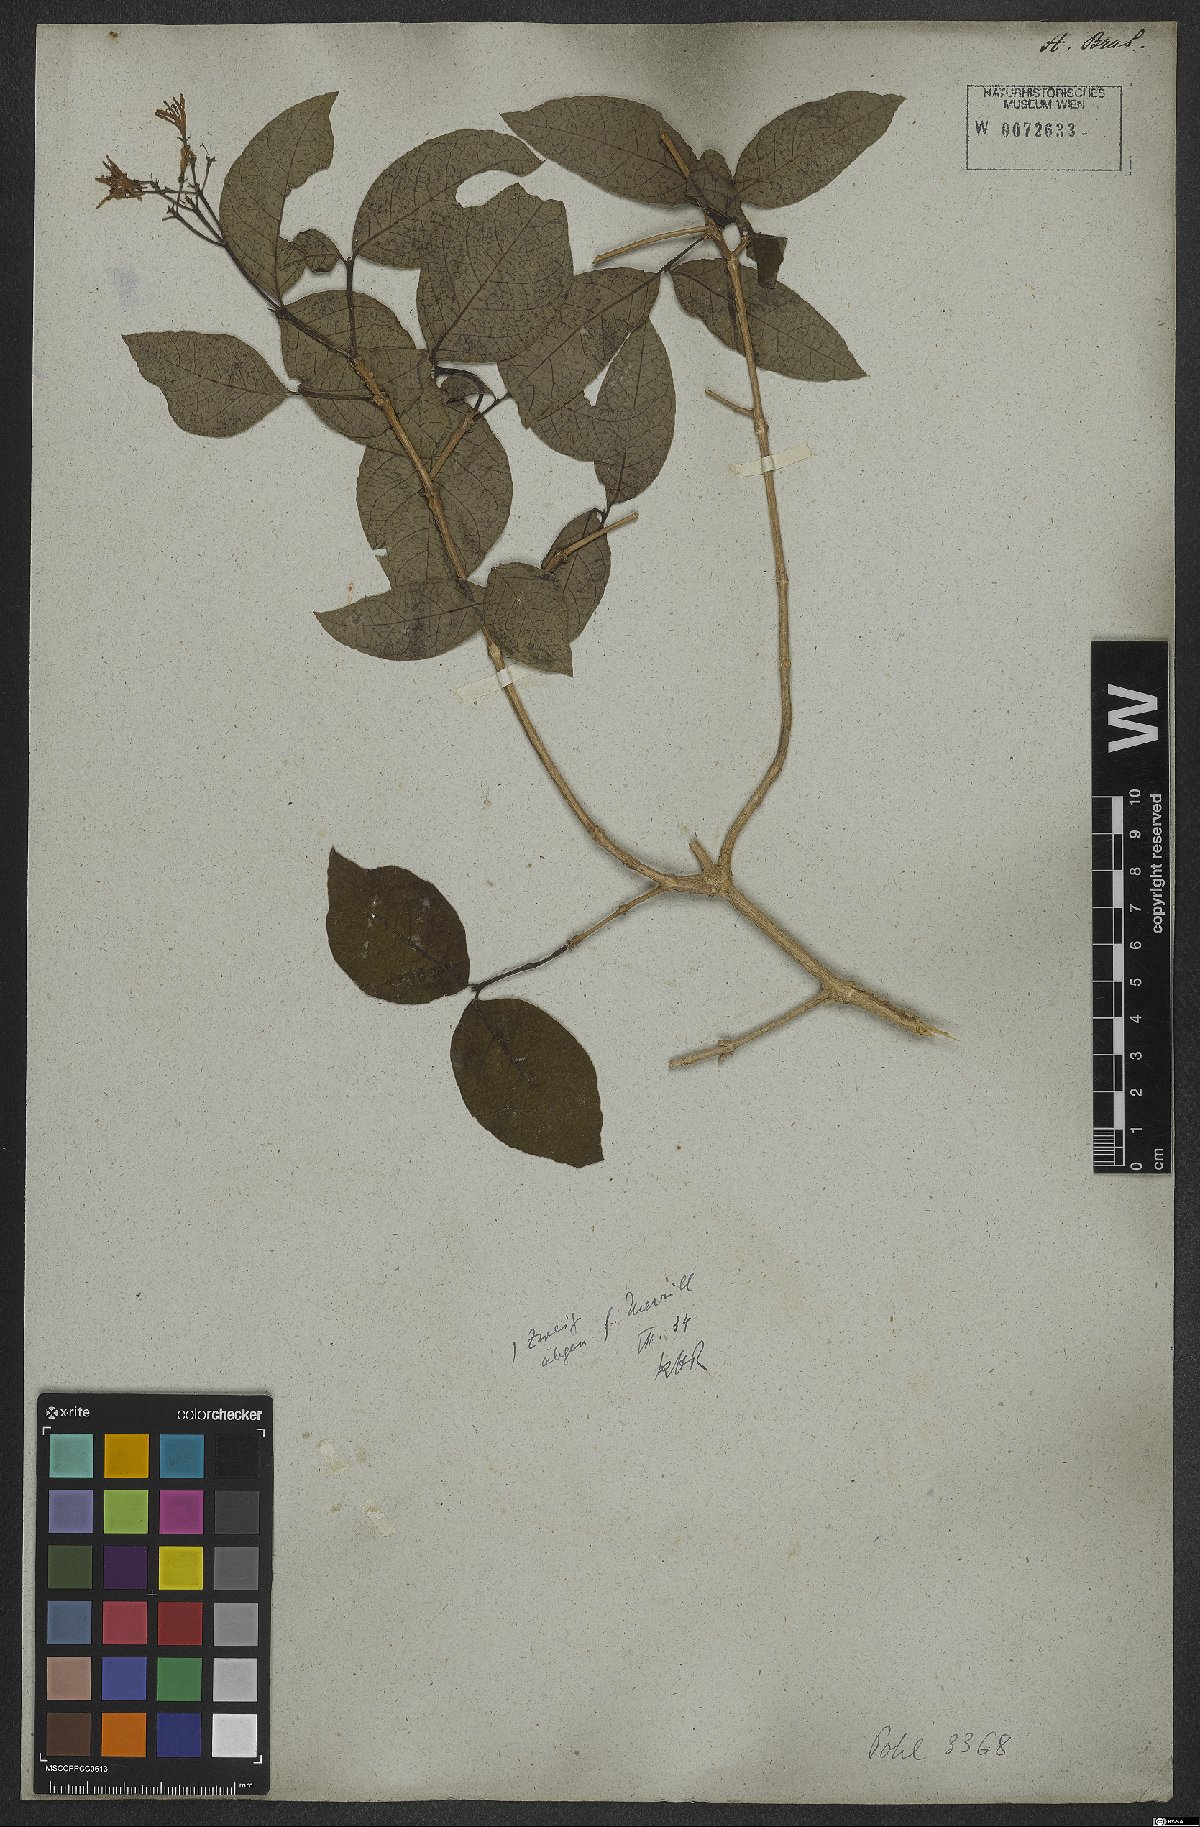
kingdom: Plantae
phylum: Tracheophyta
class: Magnoliopsida
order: Gentianales
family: Rubiaceae
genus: Rudgea
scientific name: Rudgea minor
